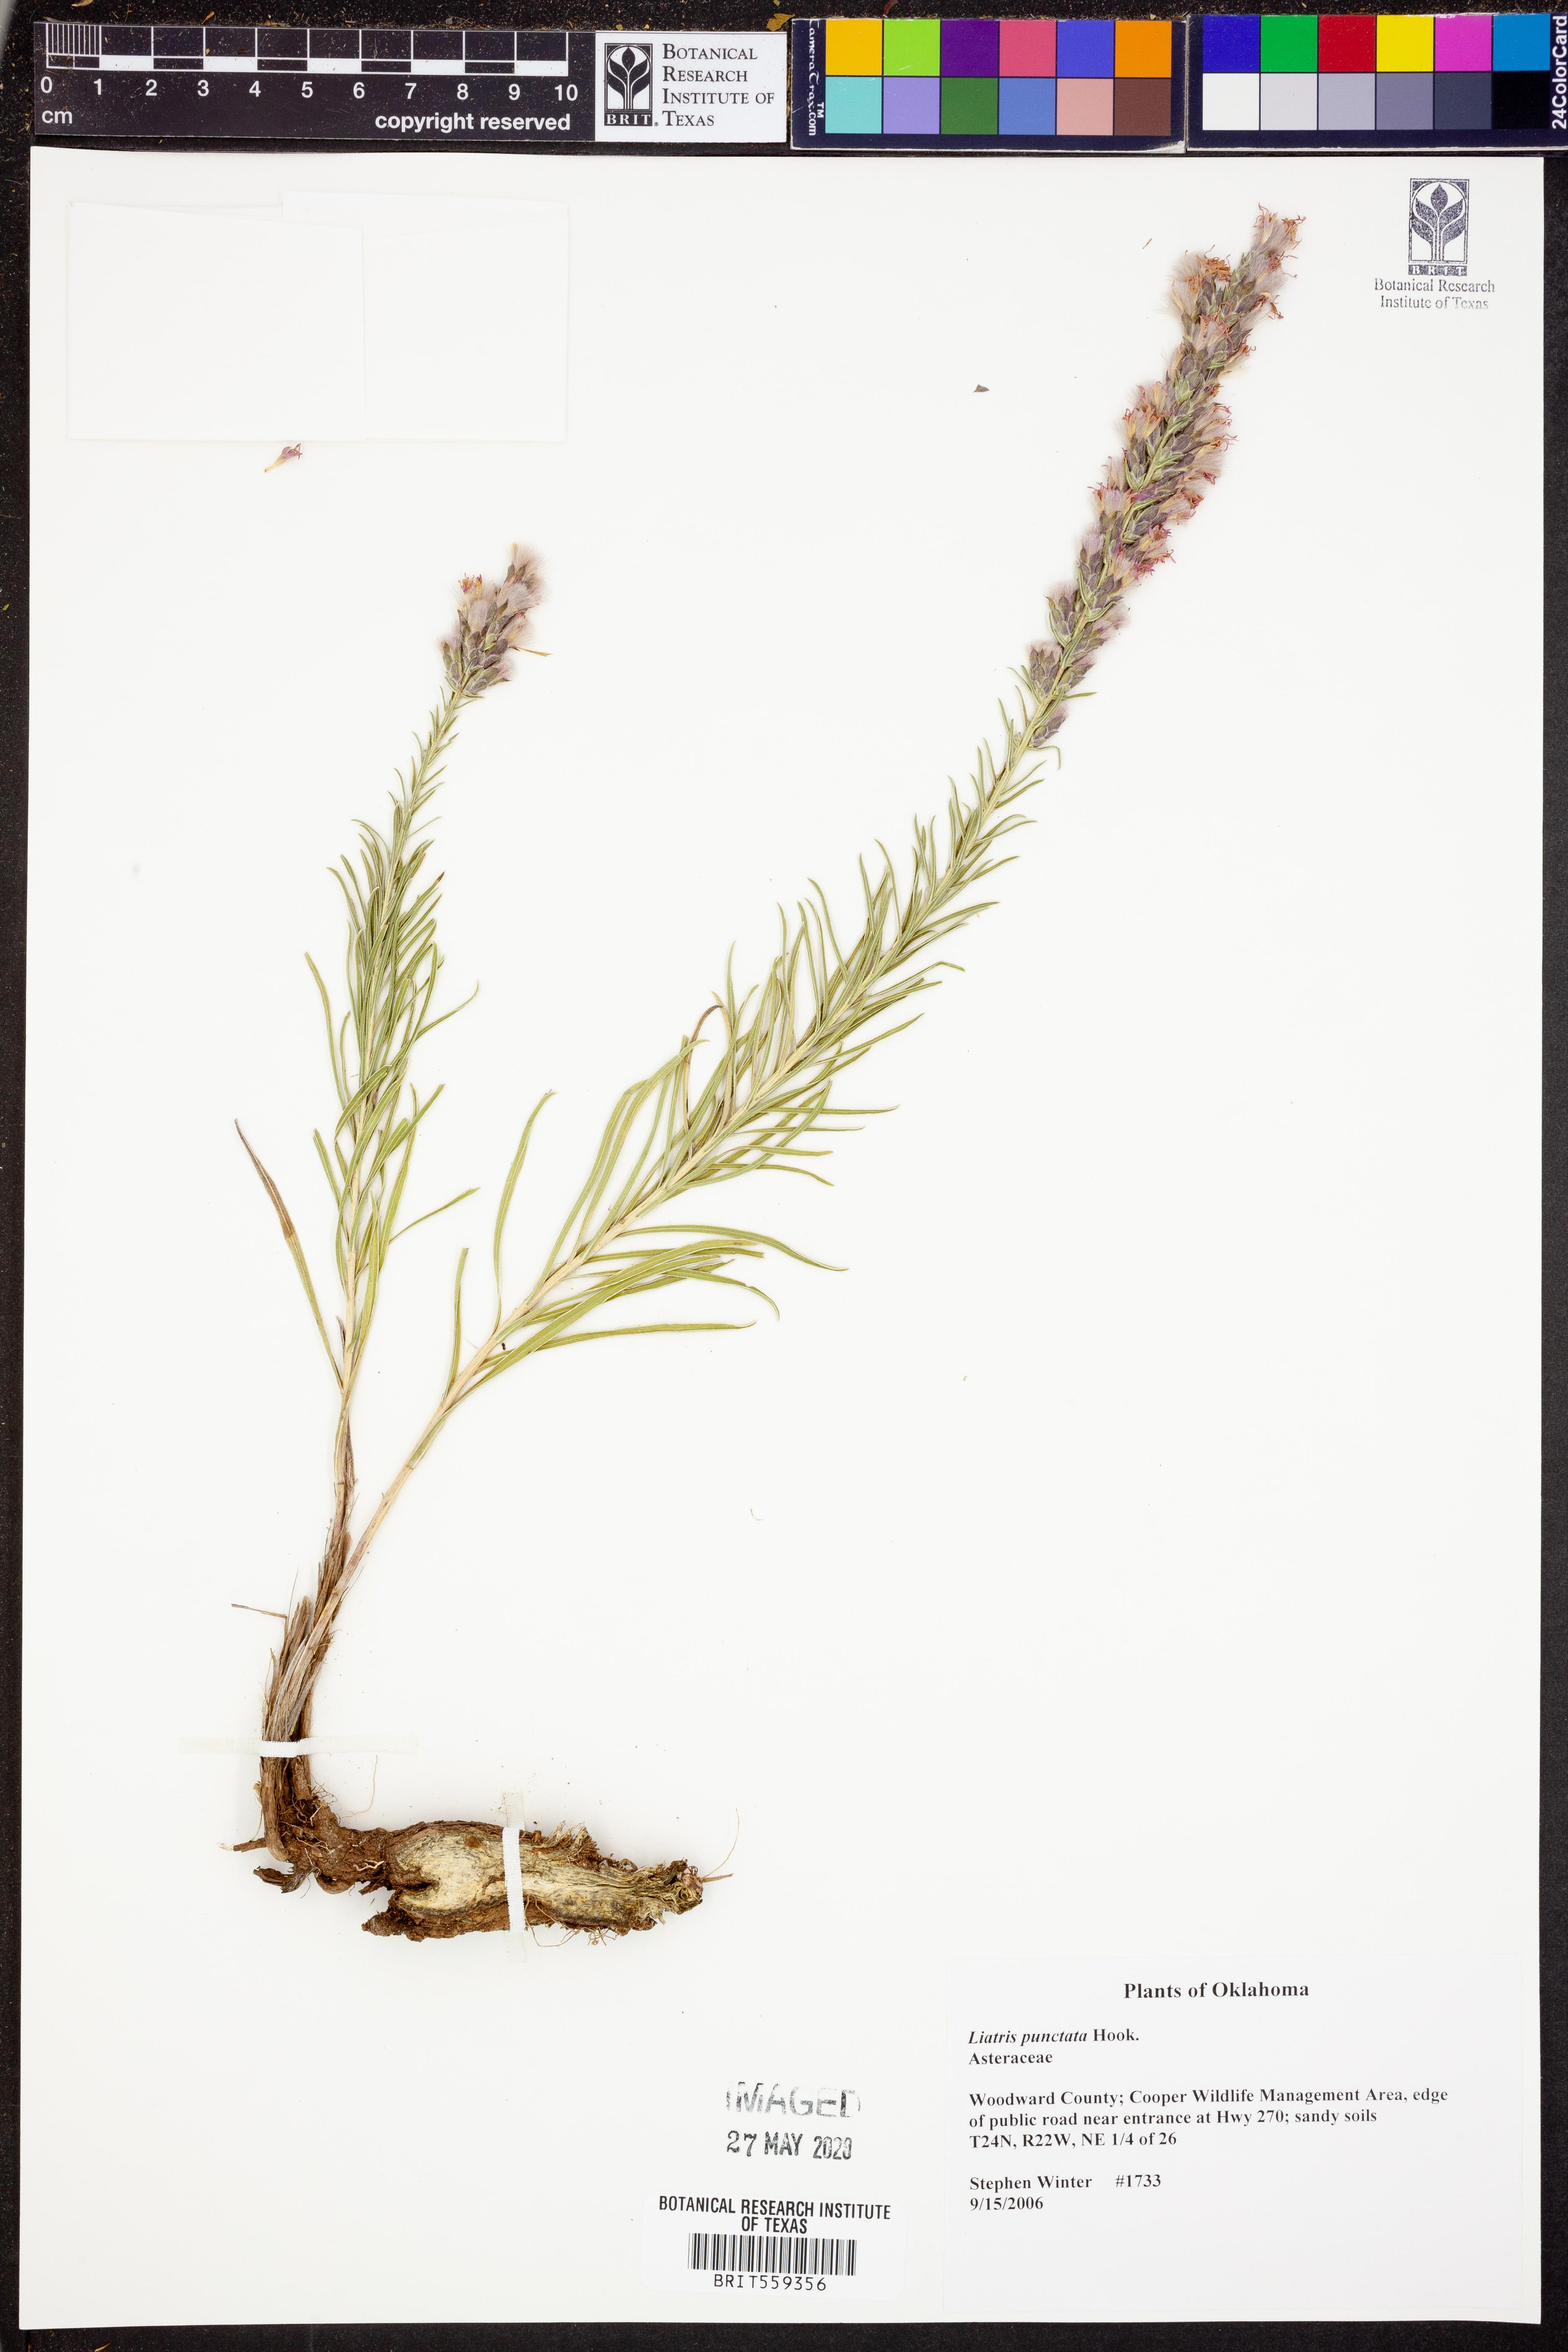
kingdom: Plantae
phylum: Tracheophyta
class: Magnoliopsida
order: Asterales
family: Asteraceae
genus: Liatris
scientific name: Liatris punctata
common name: Dotted gayfeather
